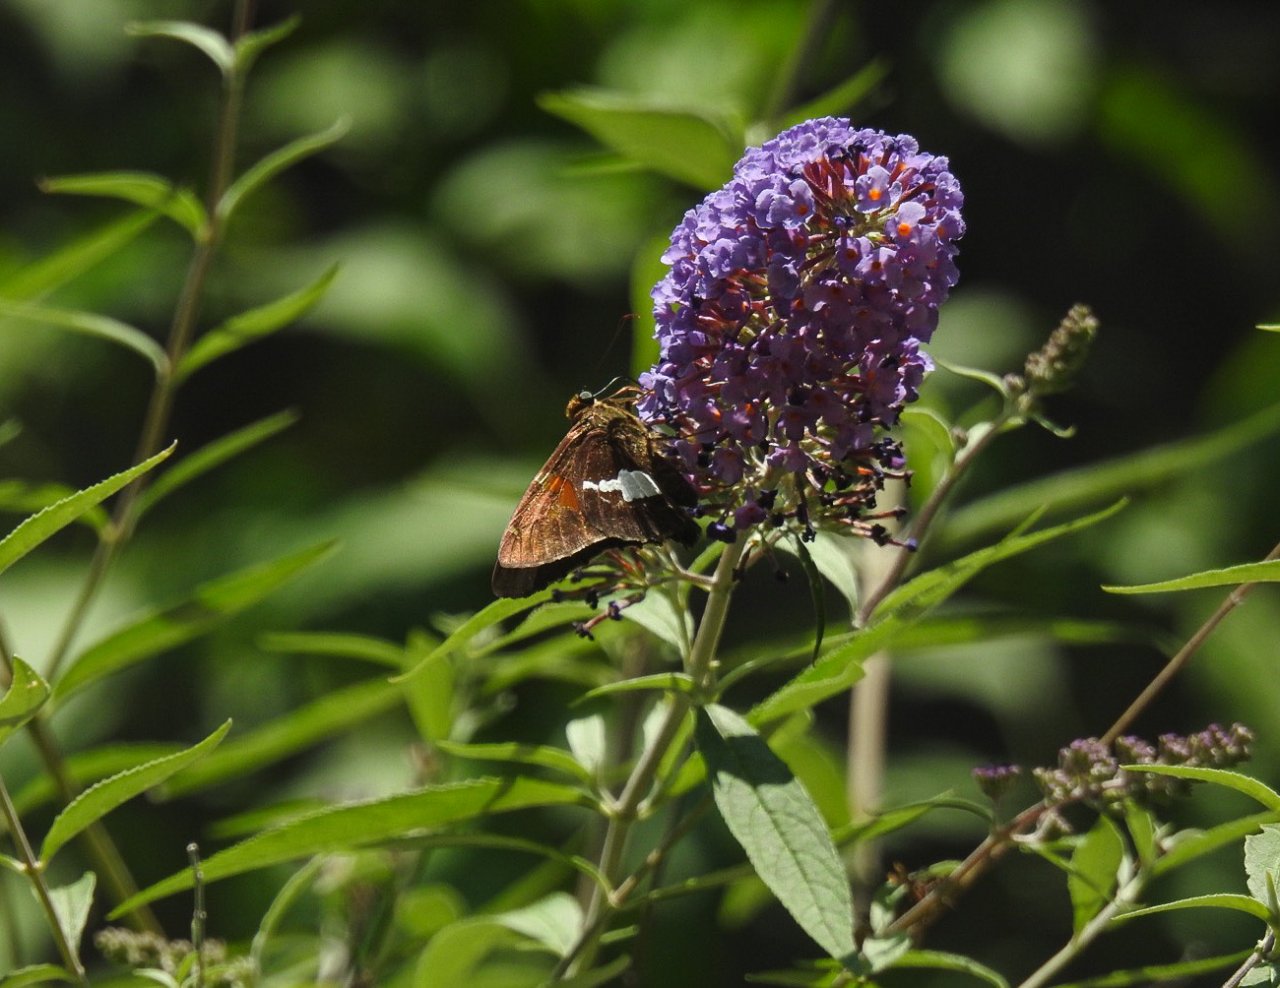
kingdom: Animalia
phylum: Arthropoda
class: Insecta
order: Lepidoptera
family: Hesperiidae
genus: Epargyreus
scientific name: Epargyreus clarus
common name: Silver-spotted Skipper
